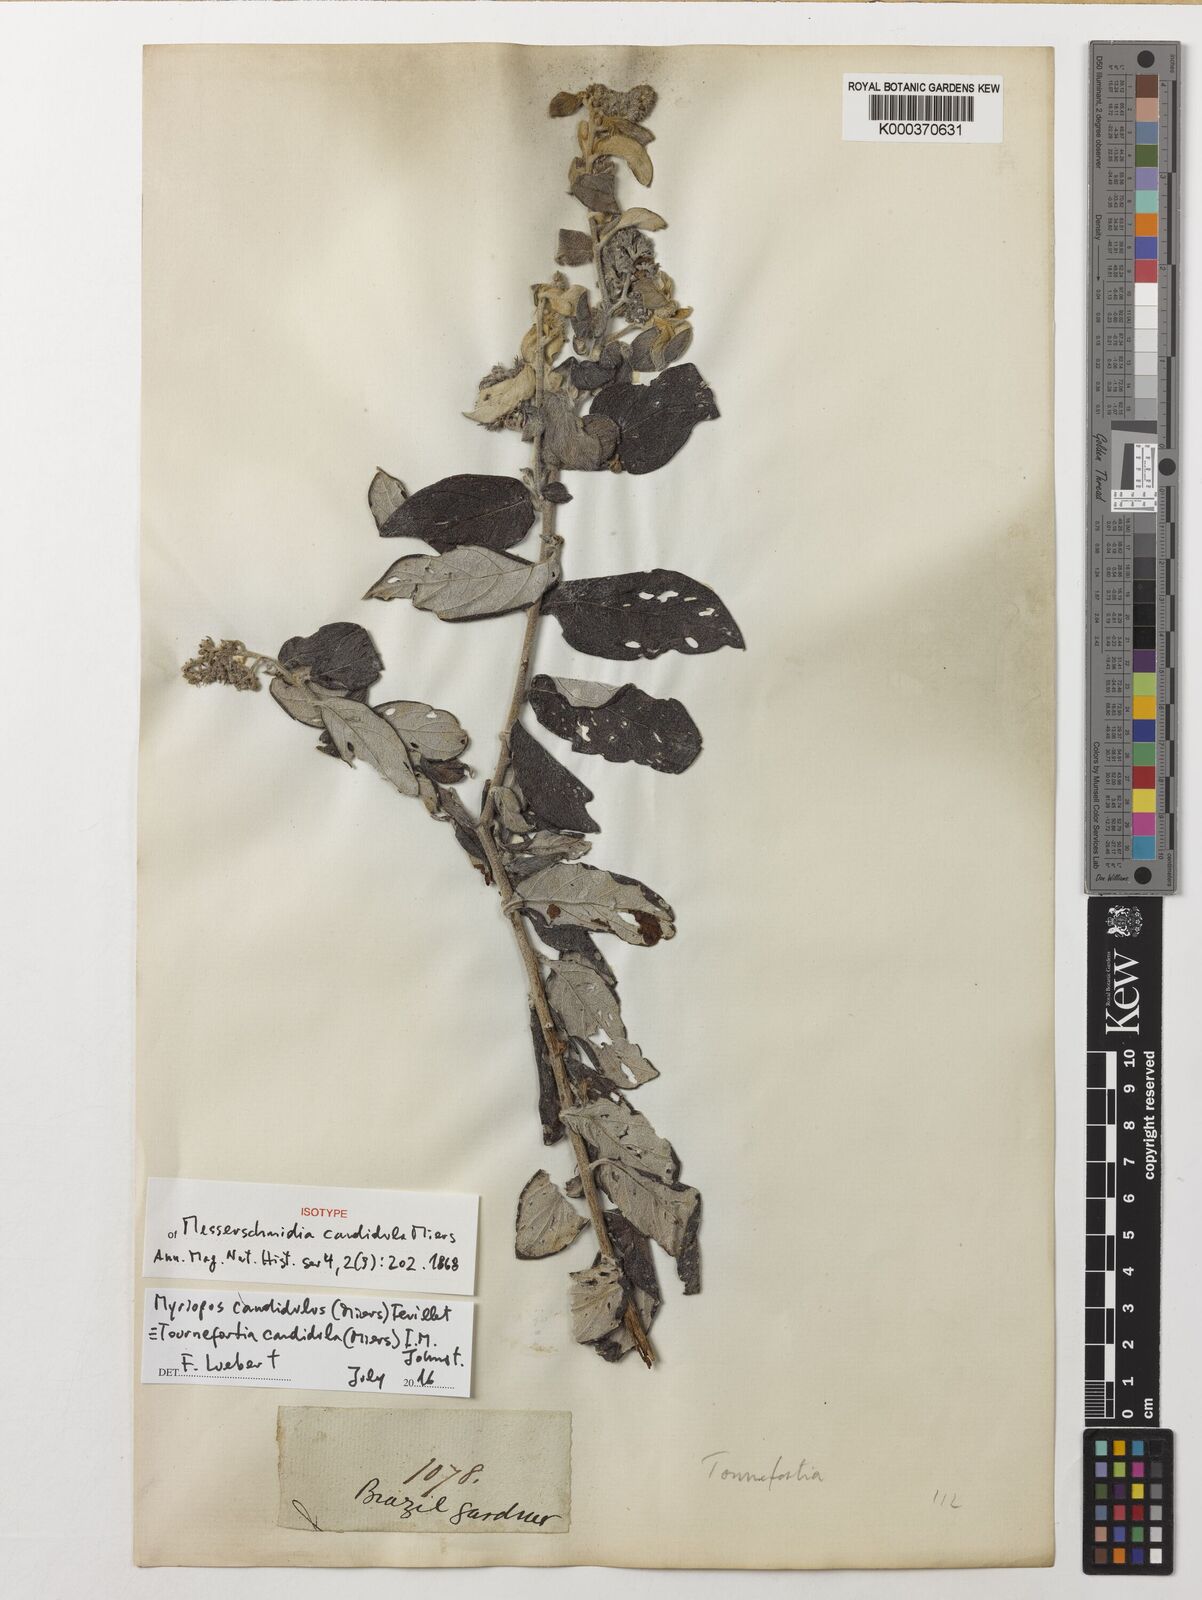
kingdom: Plantae
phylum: Tracheophyta
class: Magnoliopsida
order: Boraginales
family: Heliotropiaceae
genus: Myriopus
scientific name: Myriopus candidulus
